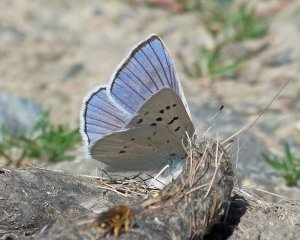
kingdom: Animalia
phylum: Arthropoda
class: Insecta
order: Lepidoptera
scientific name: Lepidoptera
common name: Butterflies
